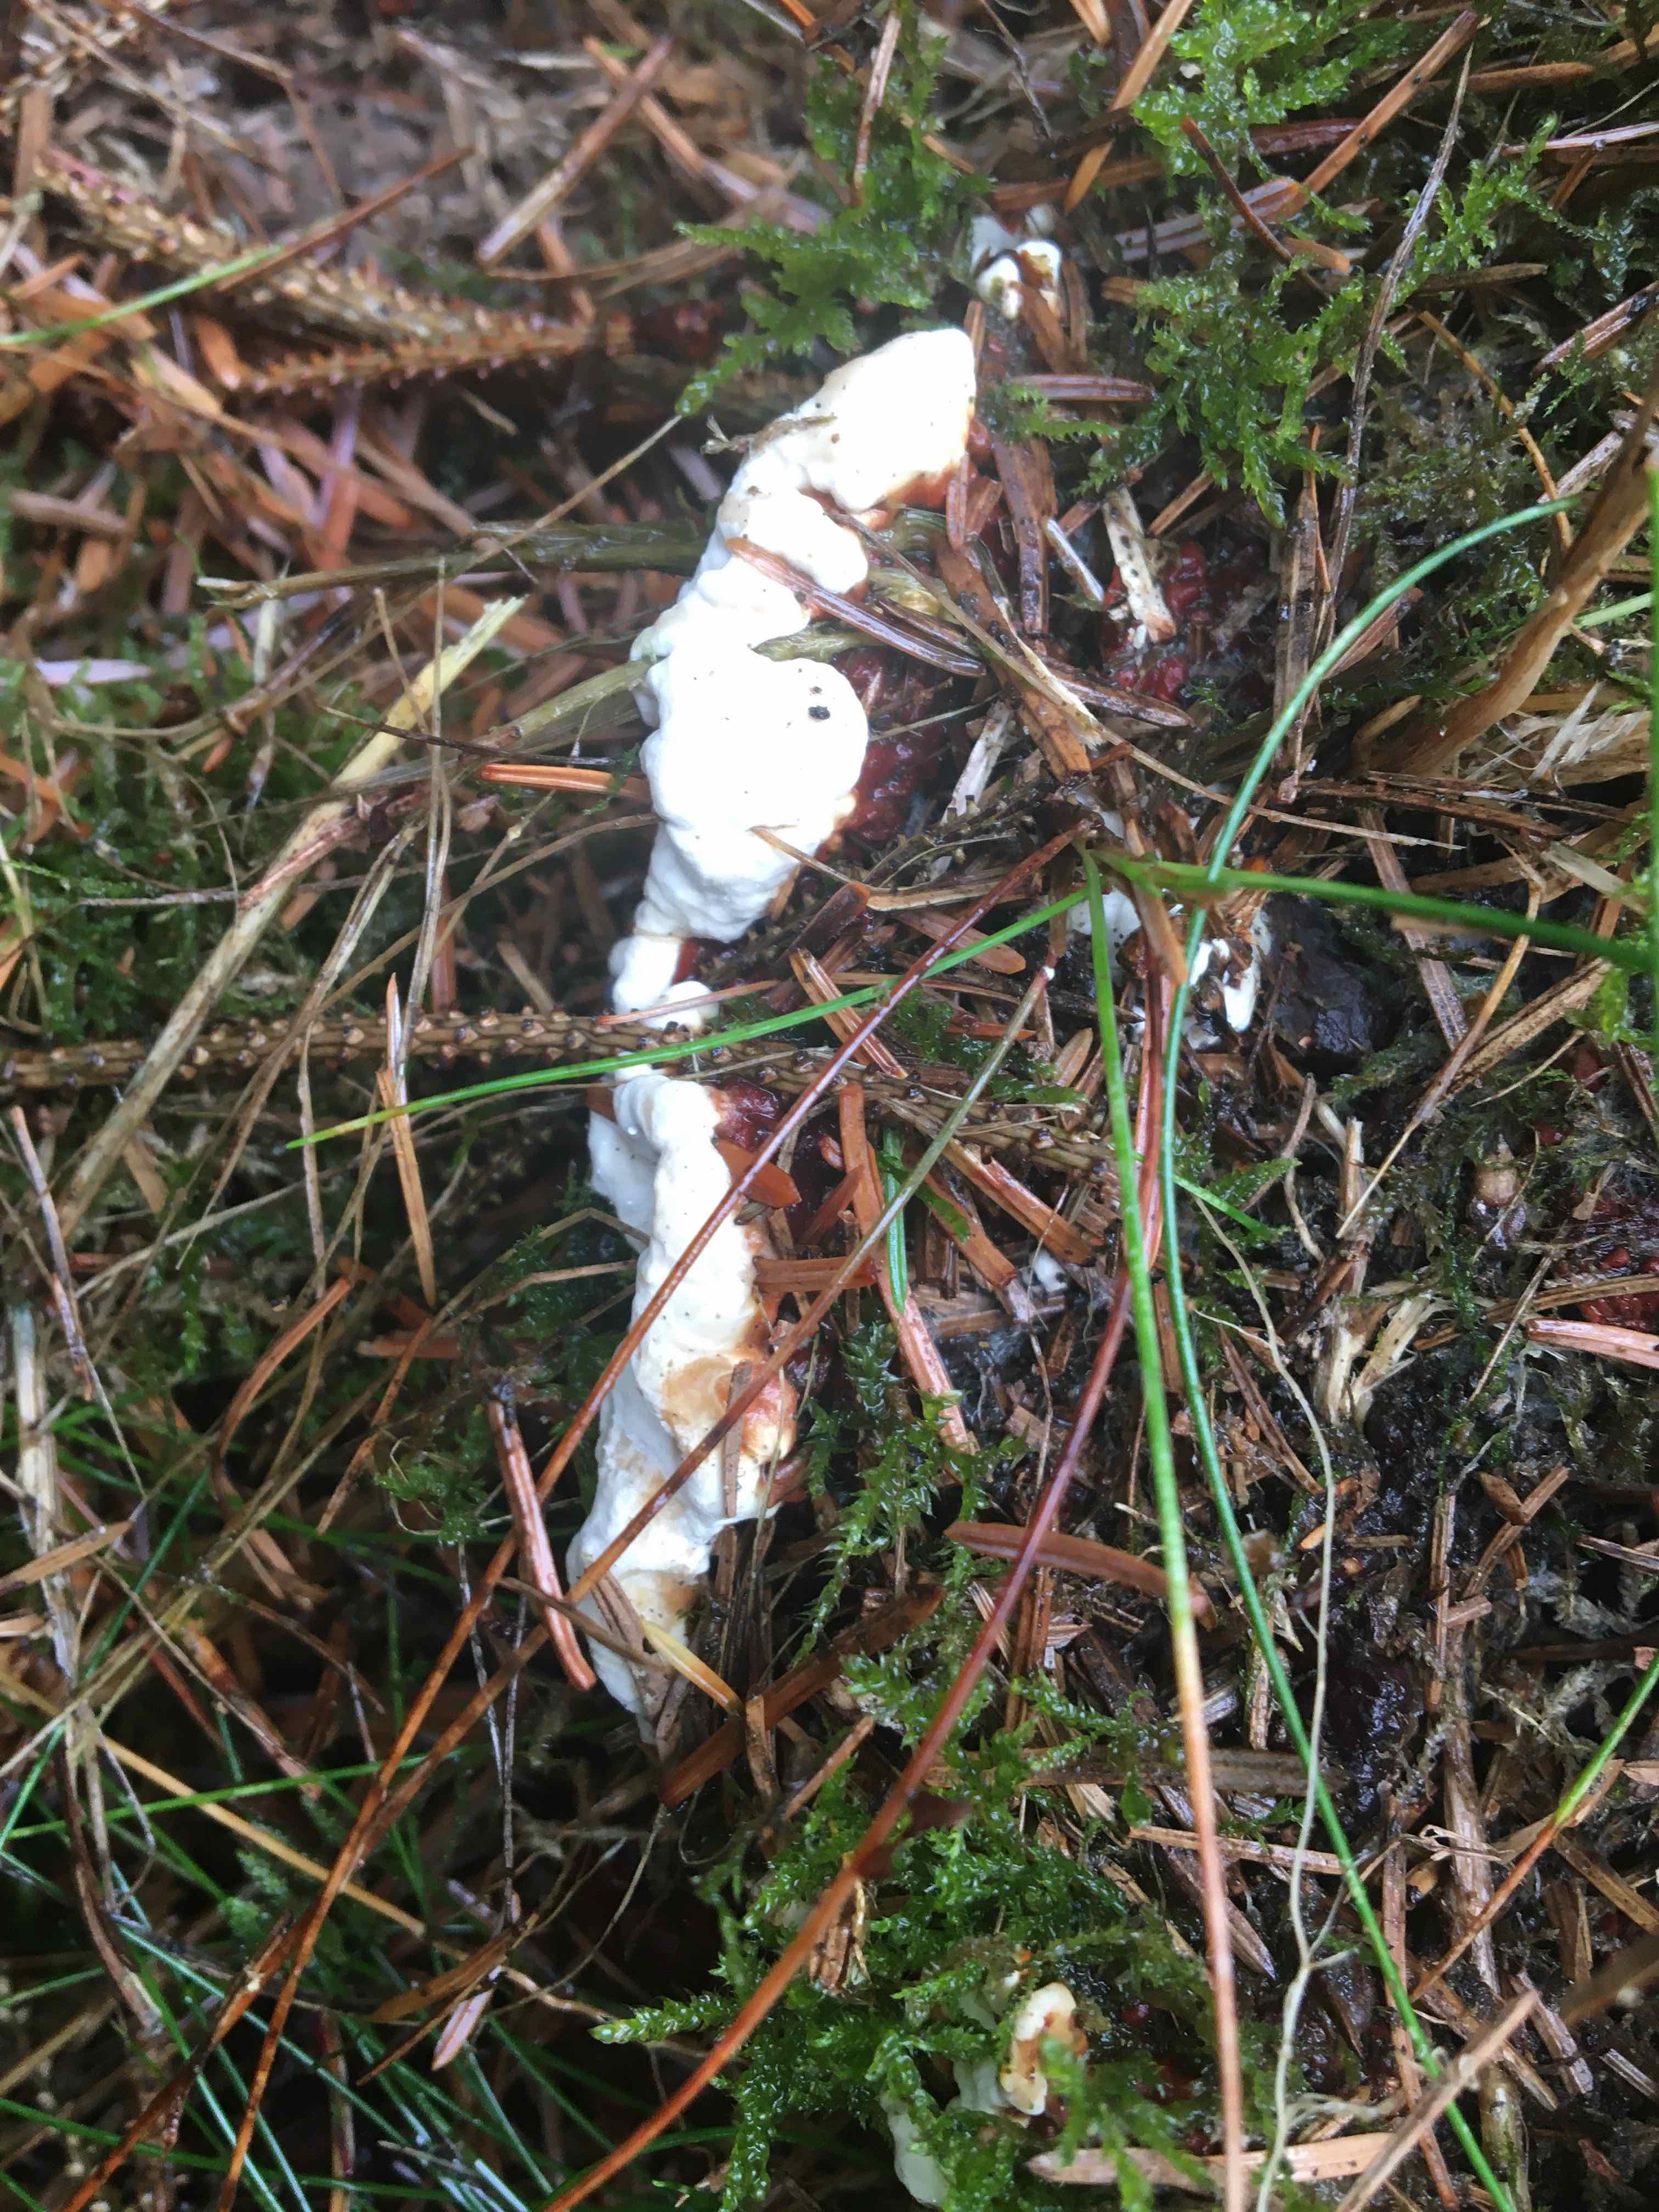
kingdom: Fungi
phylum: Basidiomycota
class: Agaricomycetes
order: Russulales
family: Bondarzewiaceae
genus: Heterobasidion
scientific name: Heterobasidion annosum
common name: almindelig rodfordærver
